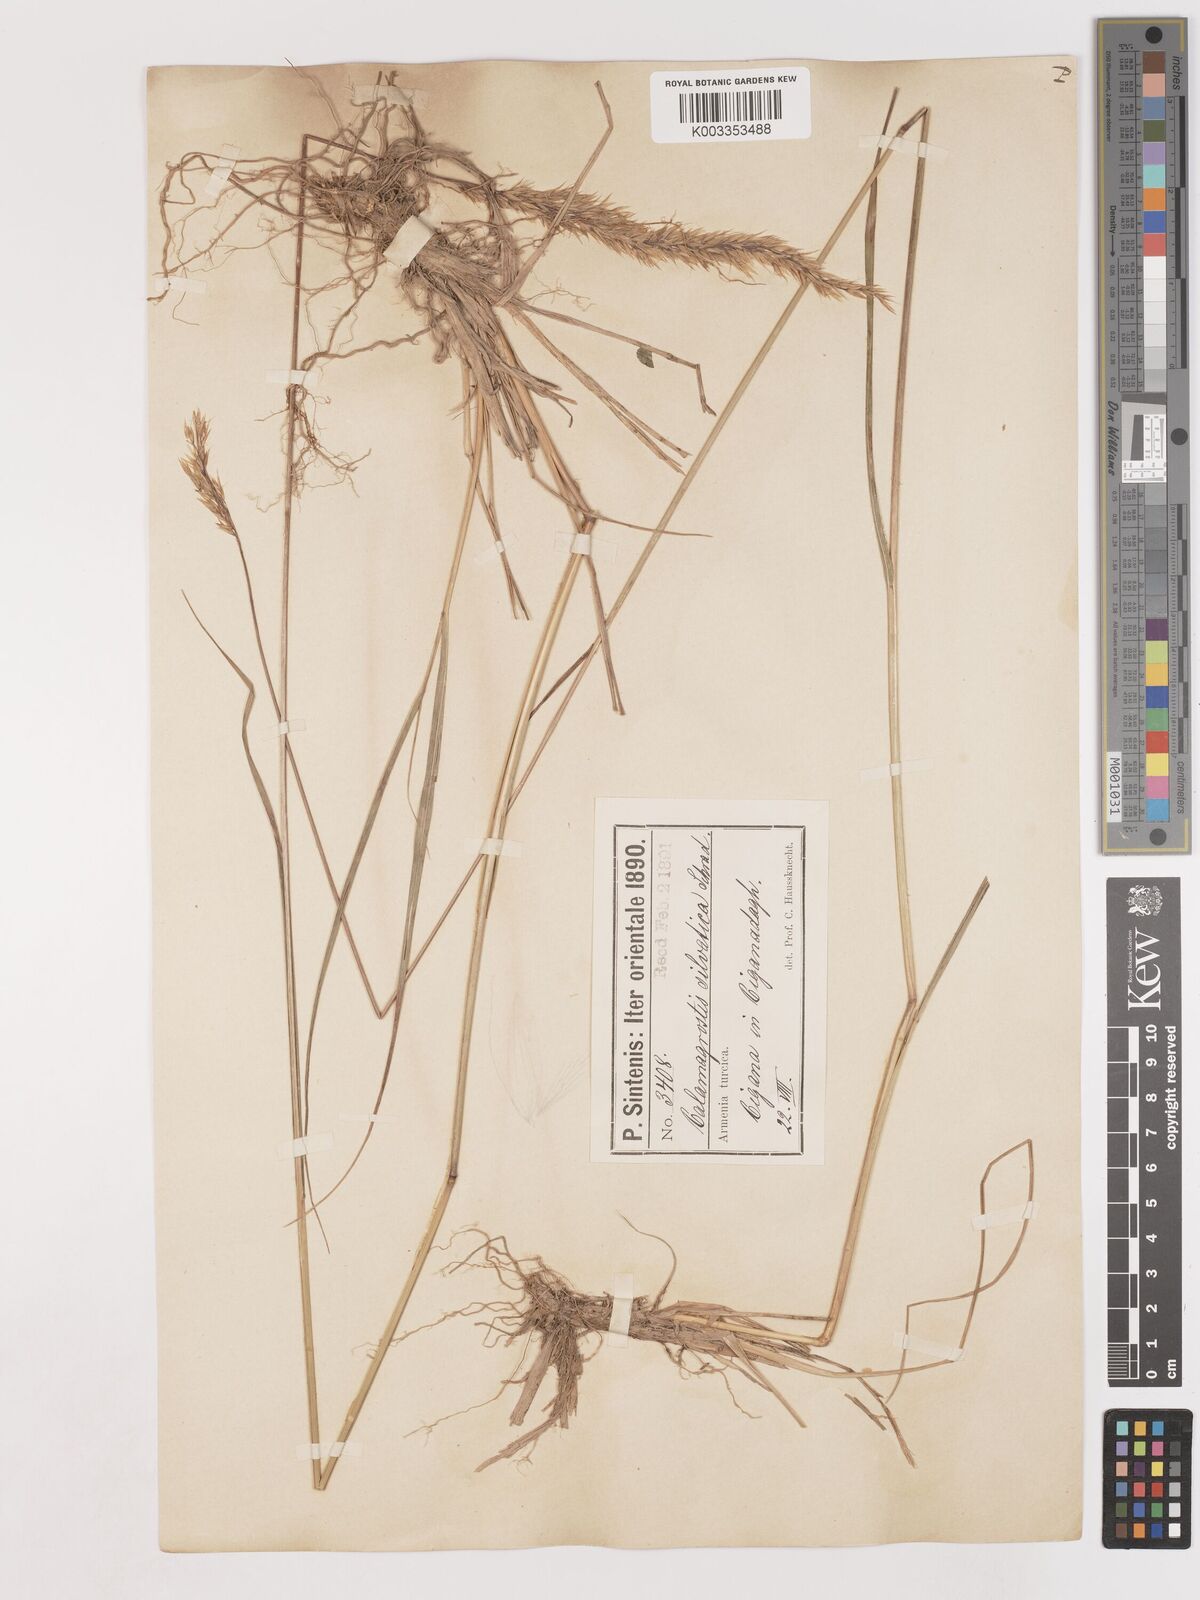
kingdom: Plantae
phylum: Tracheophyta
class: Liliopsida
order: Poales
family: Poaceae
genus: Calamagrostis
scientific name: Calamagrostis
